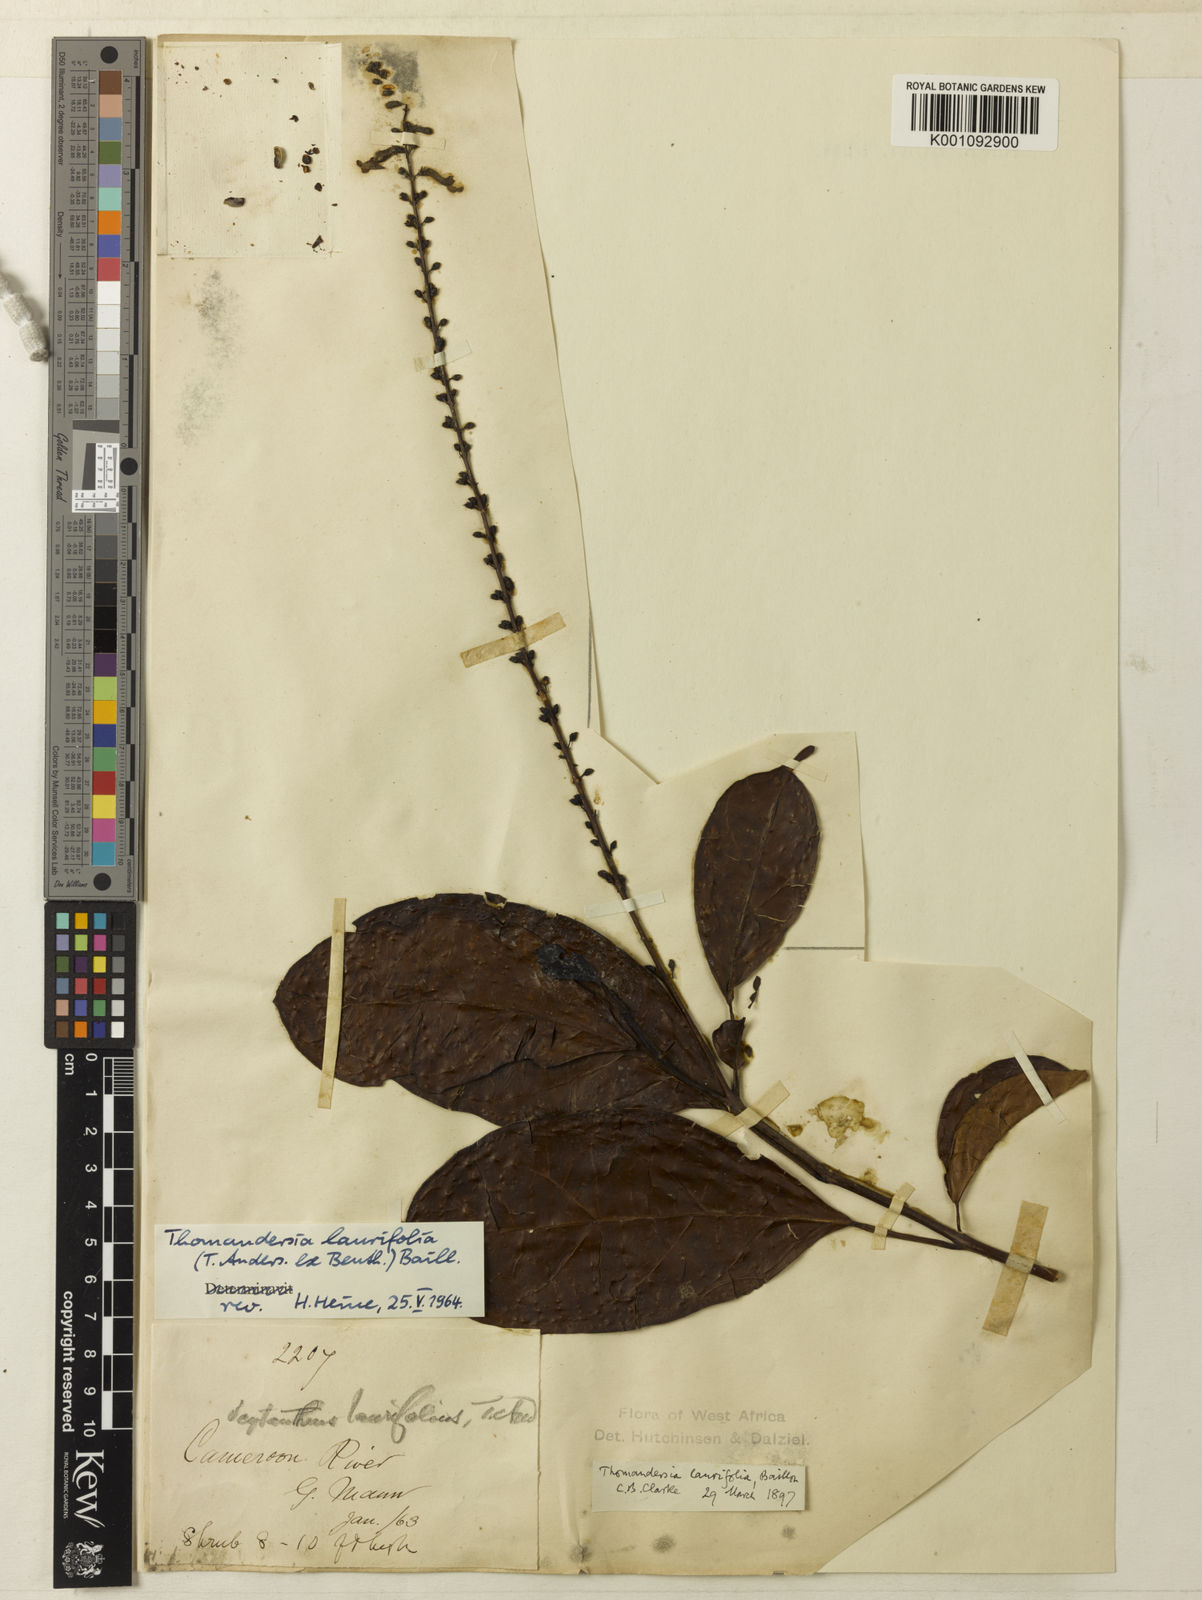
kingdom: Plantae
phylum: Tracheophyta
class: Magnoliopsida
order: Lamiales
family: Thomandersiaceae
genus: Thomandersia
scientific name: Thomandersia laurifolia
